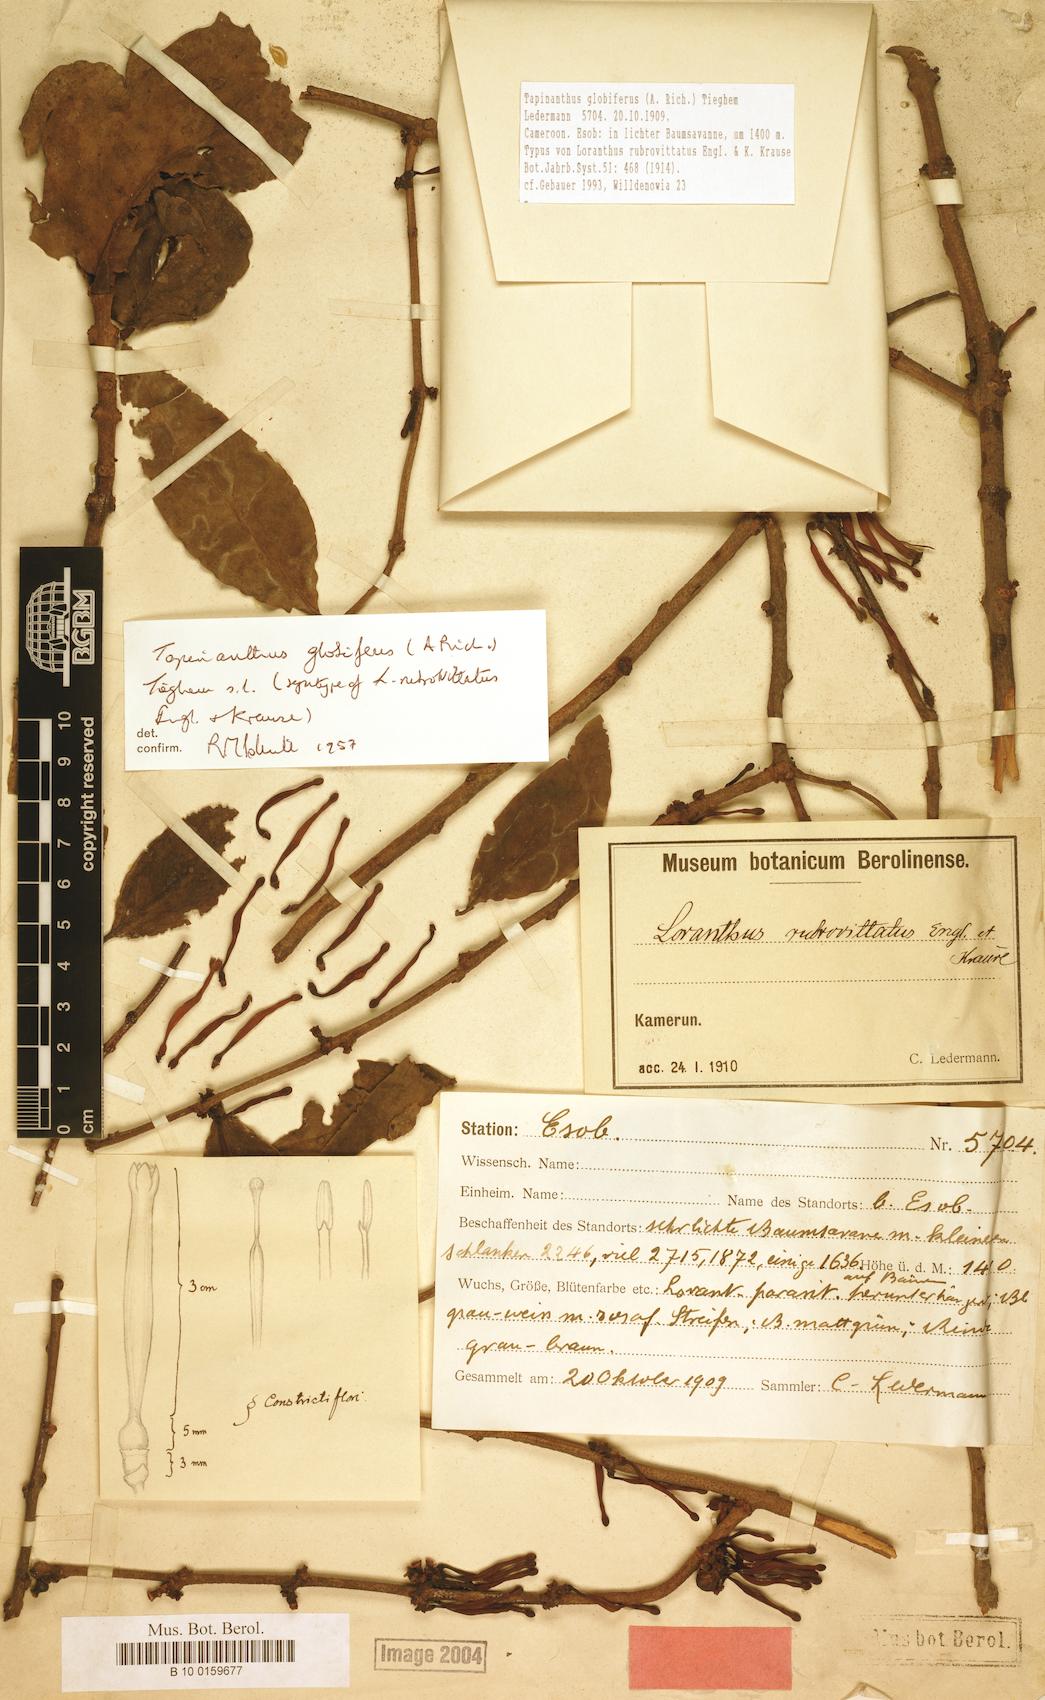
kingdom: Plantae
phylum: Tracheophyta
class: Magnoliopsida
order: Santalales
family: Loranthaceae
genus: Tapinanthus
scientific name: Tapinanthus globiferus
